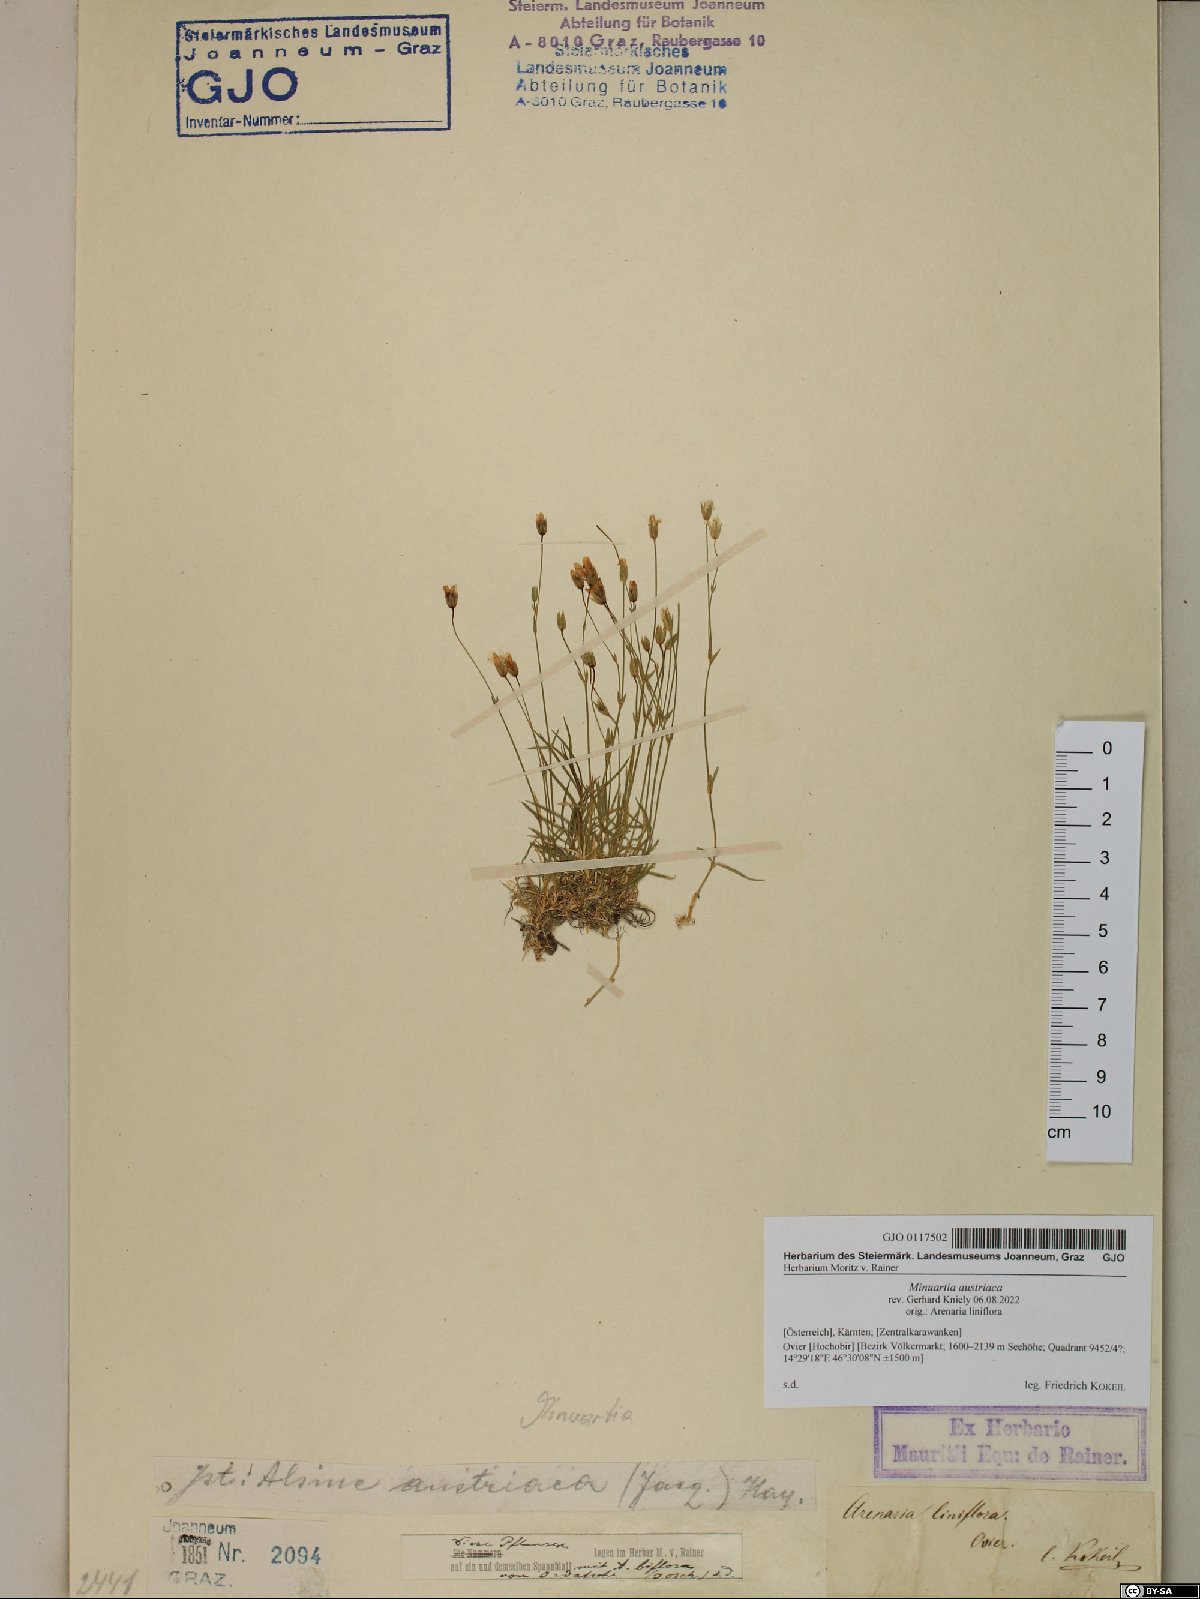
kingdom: Plantae
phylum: Tracheophyta
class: Magnoliopsida
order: Caryophyllales
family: Caryophyllaceae
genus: Sabulina
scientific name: Sabulina austriaca
